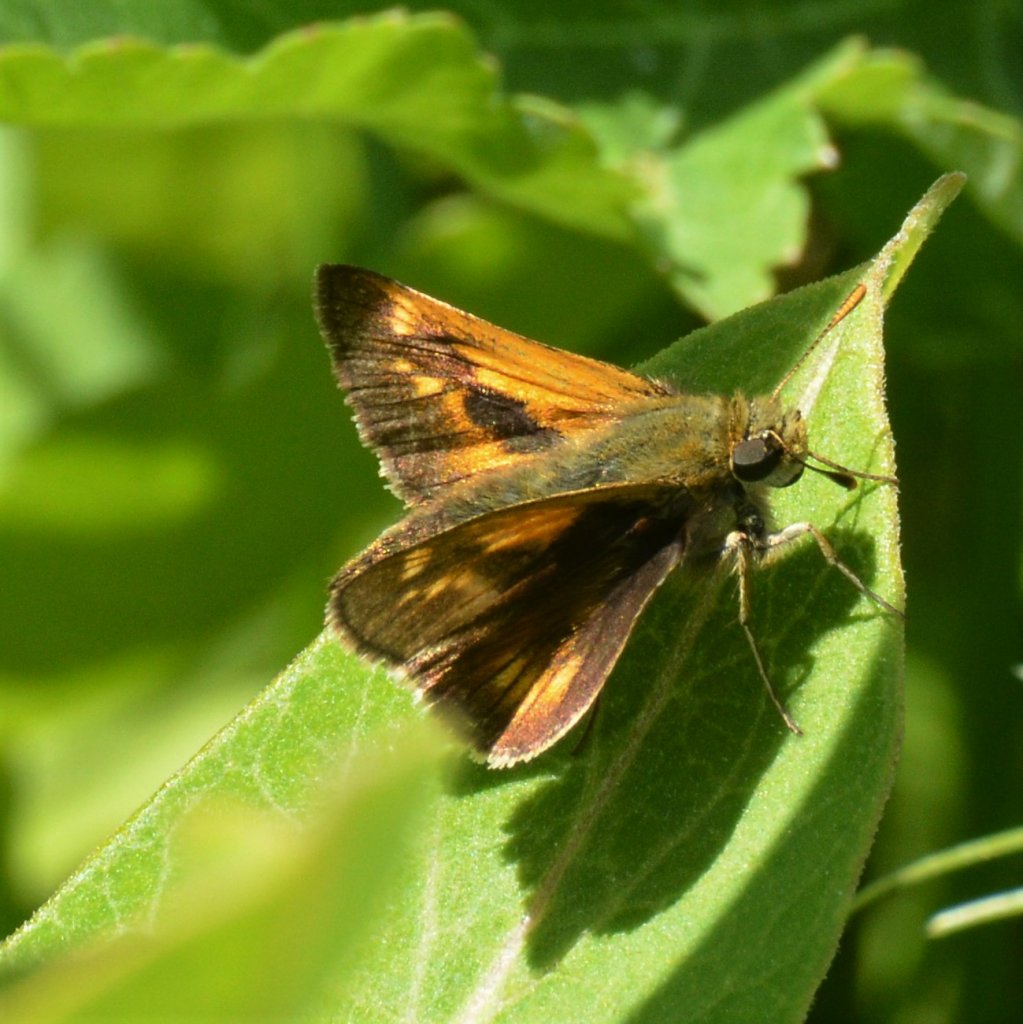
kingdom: Animalia
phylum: Arthropoda
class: Insecta
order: Lepidoptera
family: Hesperiidae
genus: Polites
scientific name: Polites
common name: Long Dash Skipper
